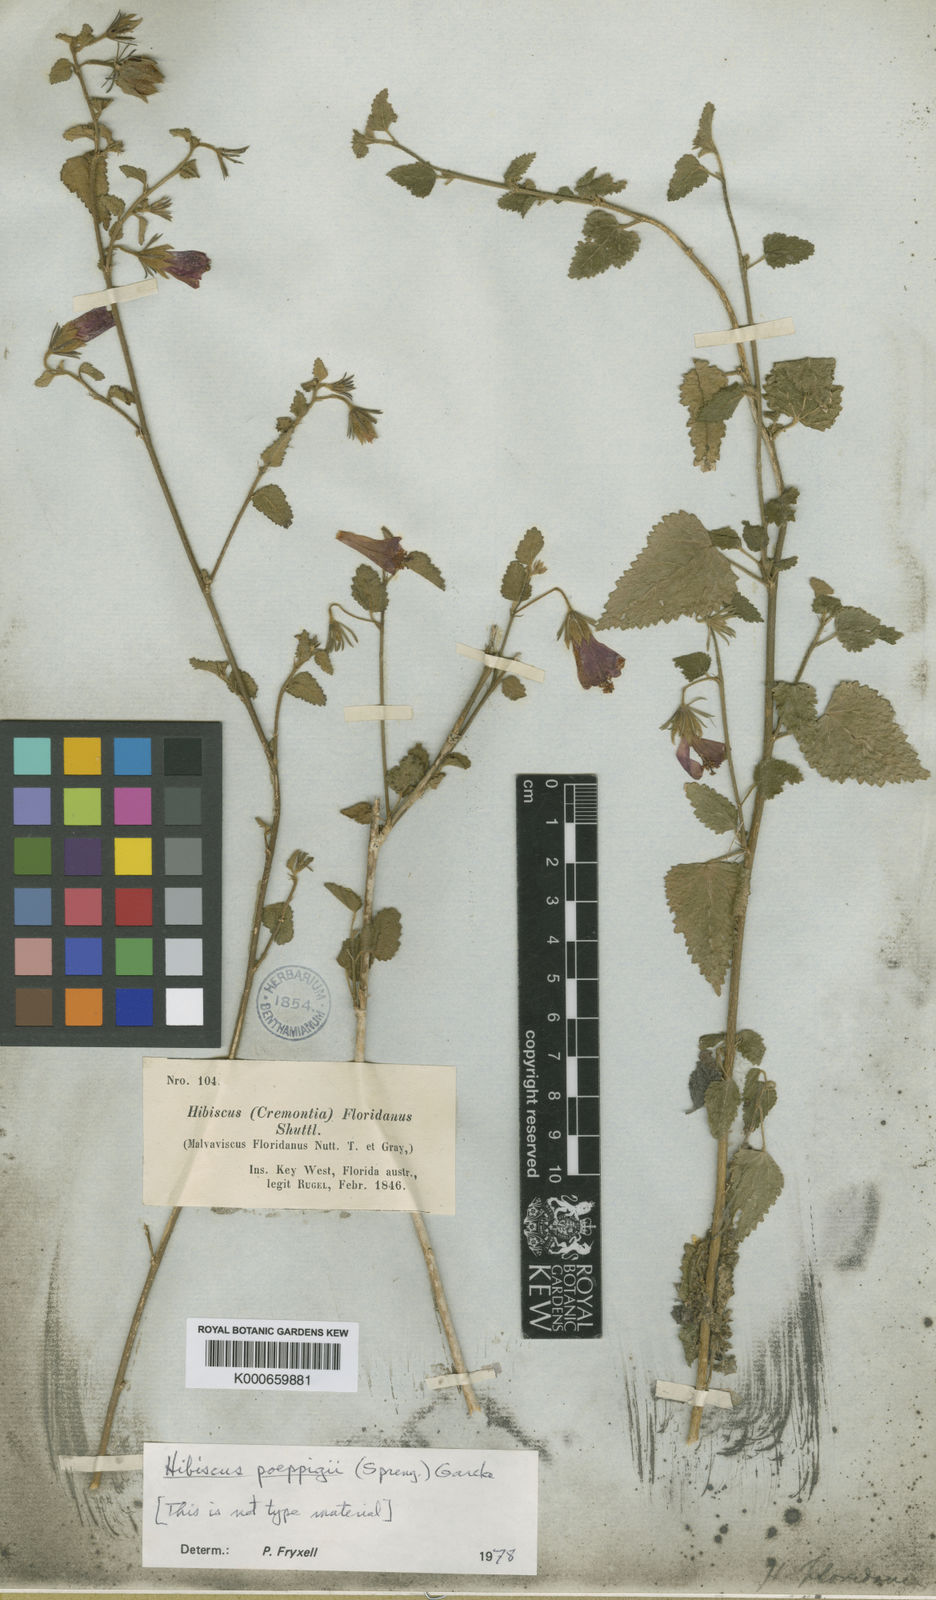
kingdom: Plantae
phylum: Tracheophyta
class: Magnoliopsida
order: Malvales
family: Malvaceae
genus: Kosteletzkya
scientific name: Kosteletzkya tubiflora
